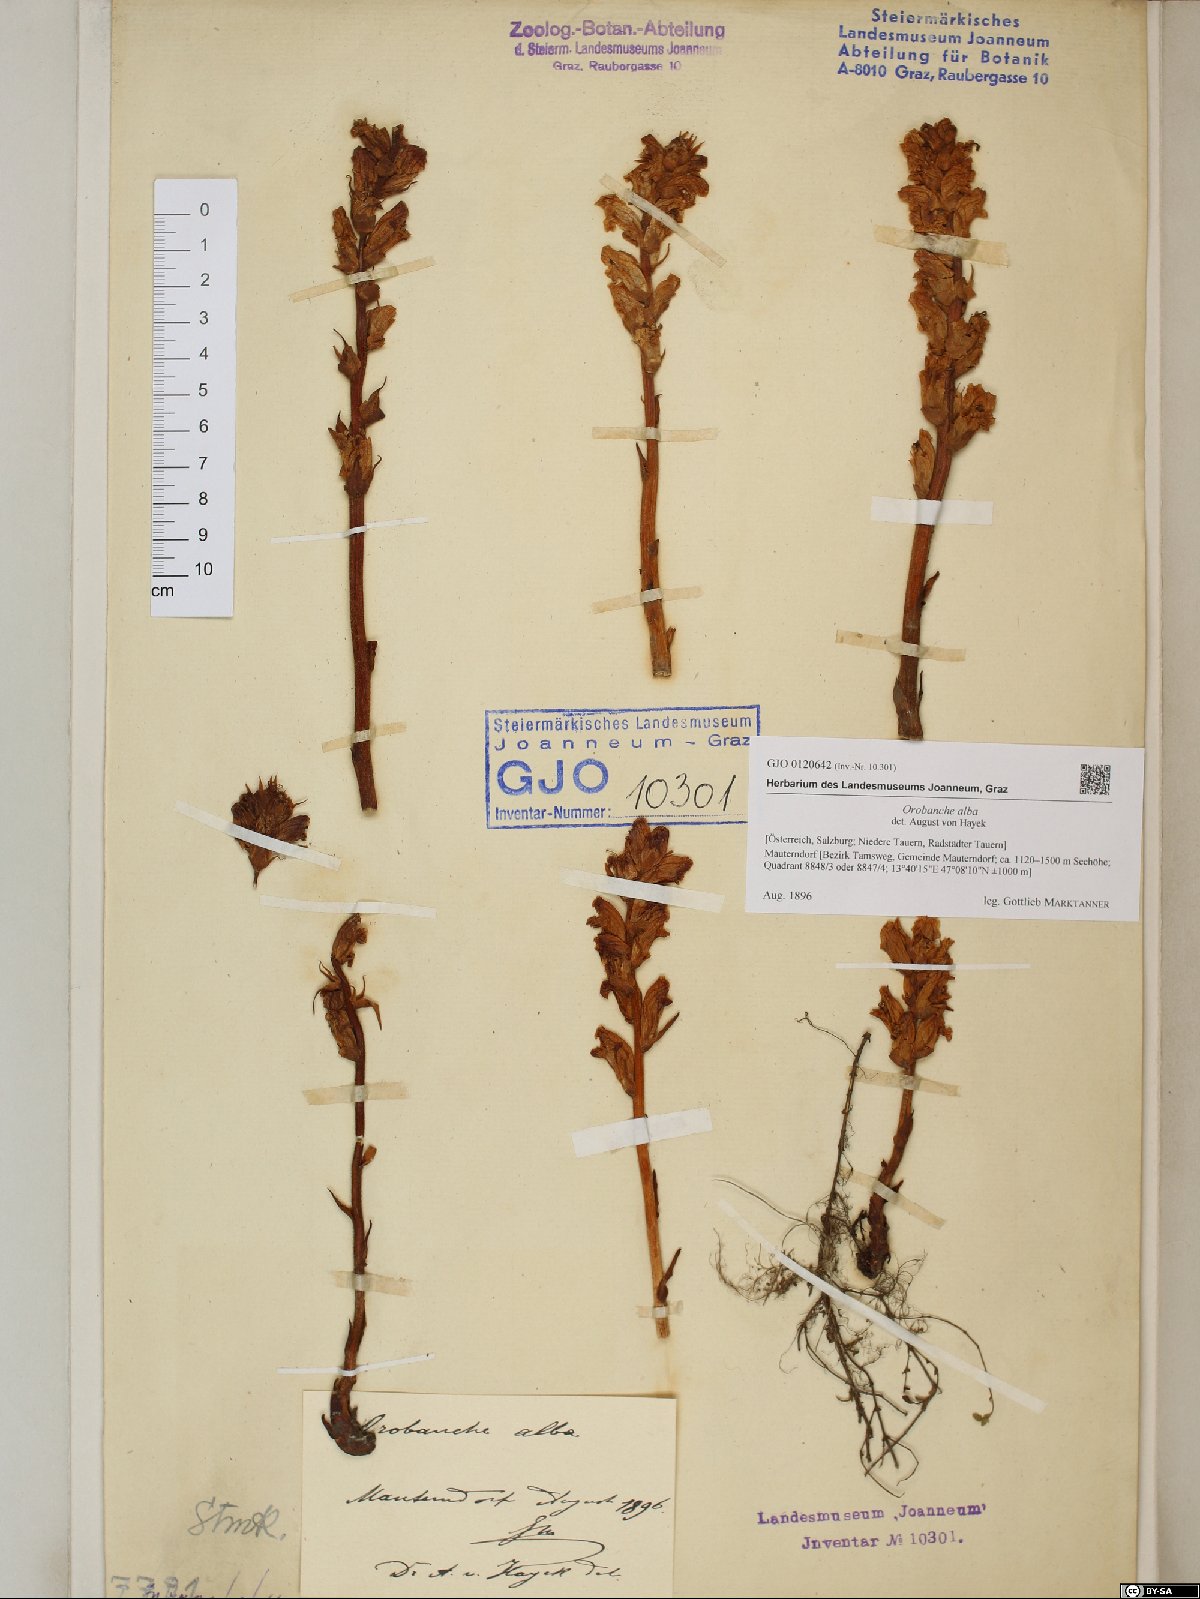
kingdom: Plantae
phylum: Tracheophyta
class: Magnoliopsida
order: Lamiales
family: Orobanchaceae
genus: Orobanche
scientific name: Orobanche alba
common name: Thyme broomrape
